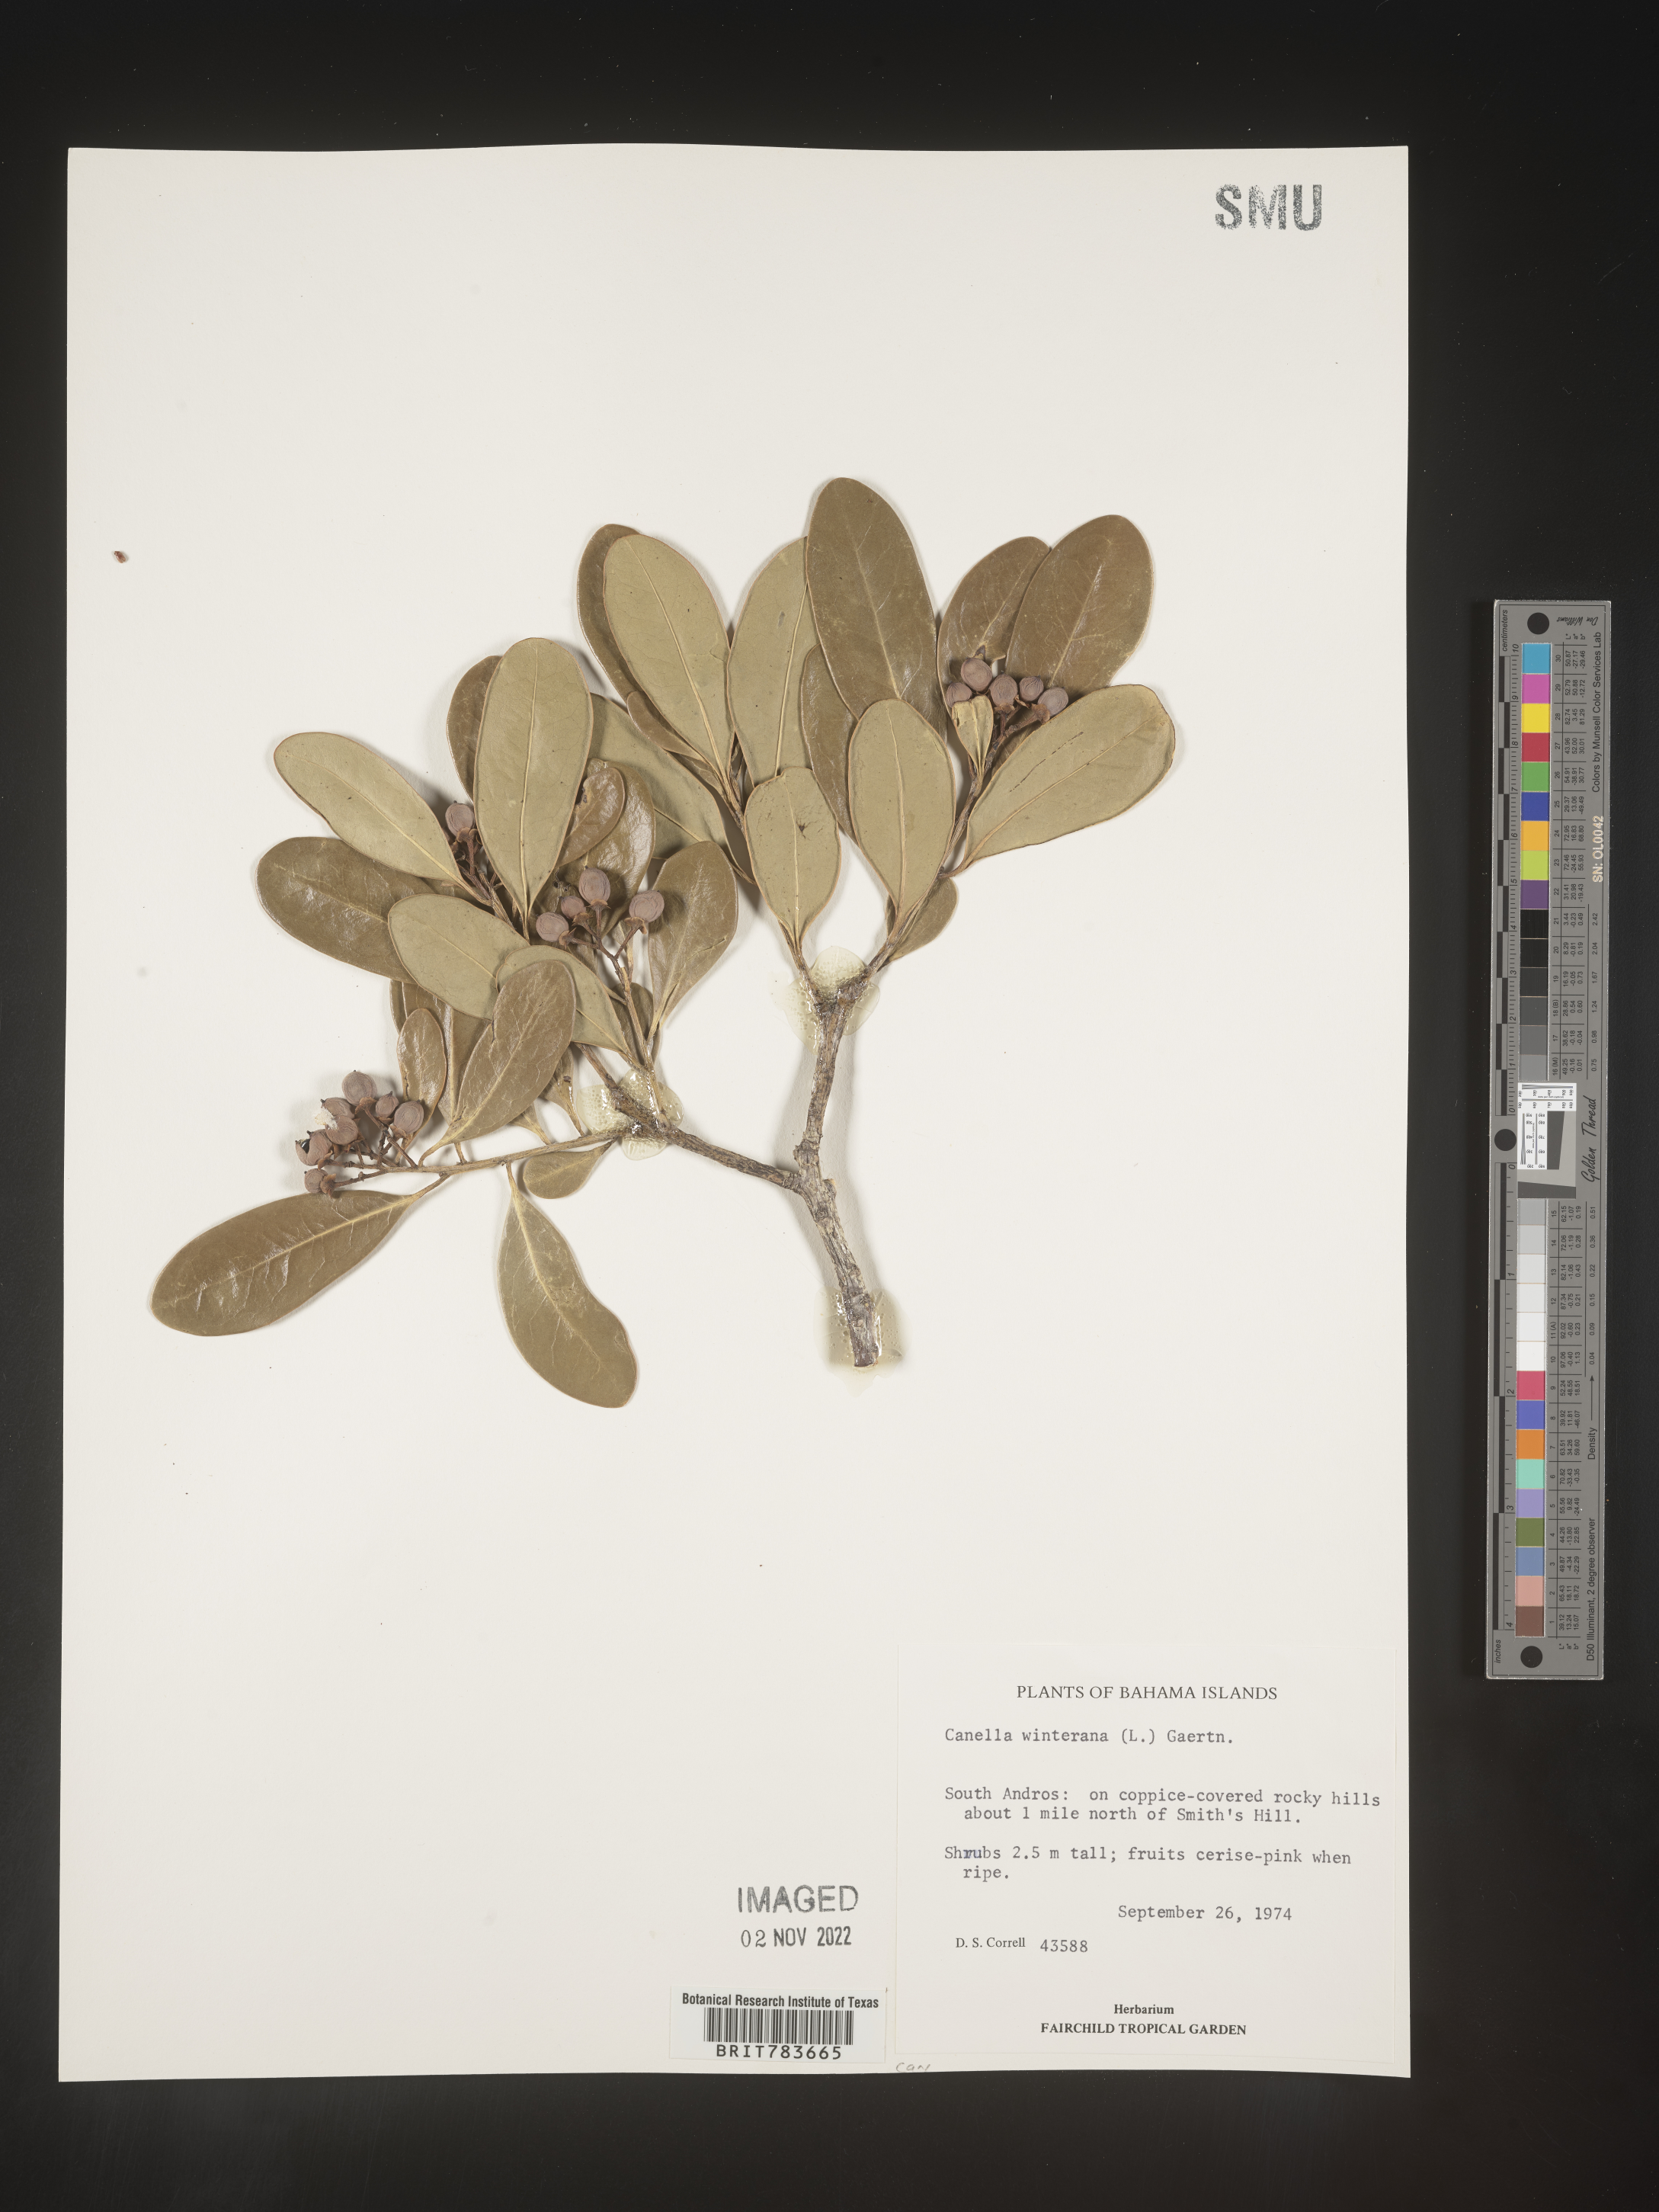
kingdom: Plantae
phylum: Tracheophyta
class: Magnoliopsida
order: Canellales
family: Canellaceae
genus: Canella
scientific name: Canella
